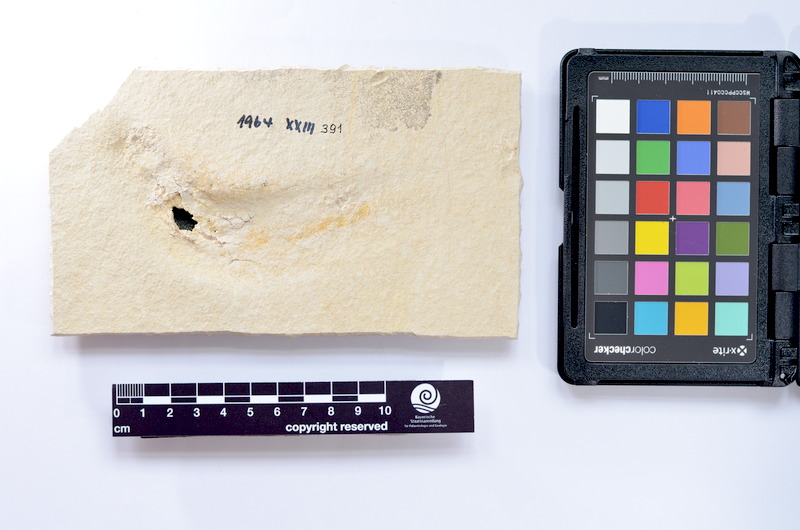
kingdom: Animalia
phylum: Chordata
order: Elopiformes
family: Anaethalionidae
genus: Anaethalion
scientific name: Anaethalion knorri
